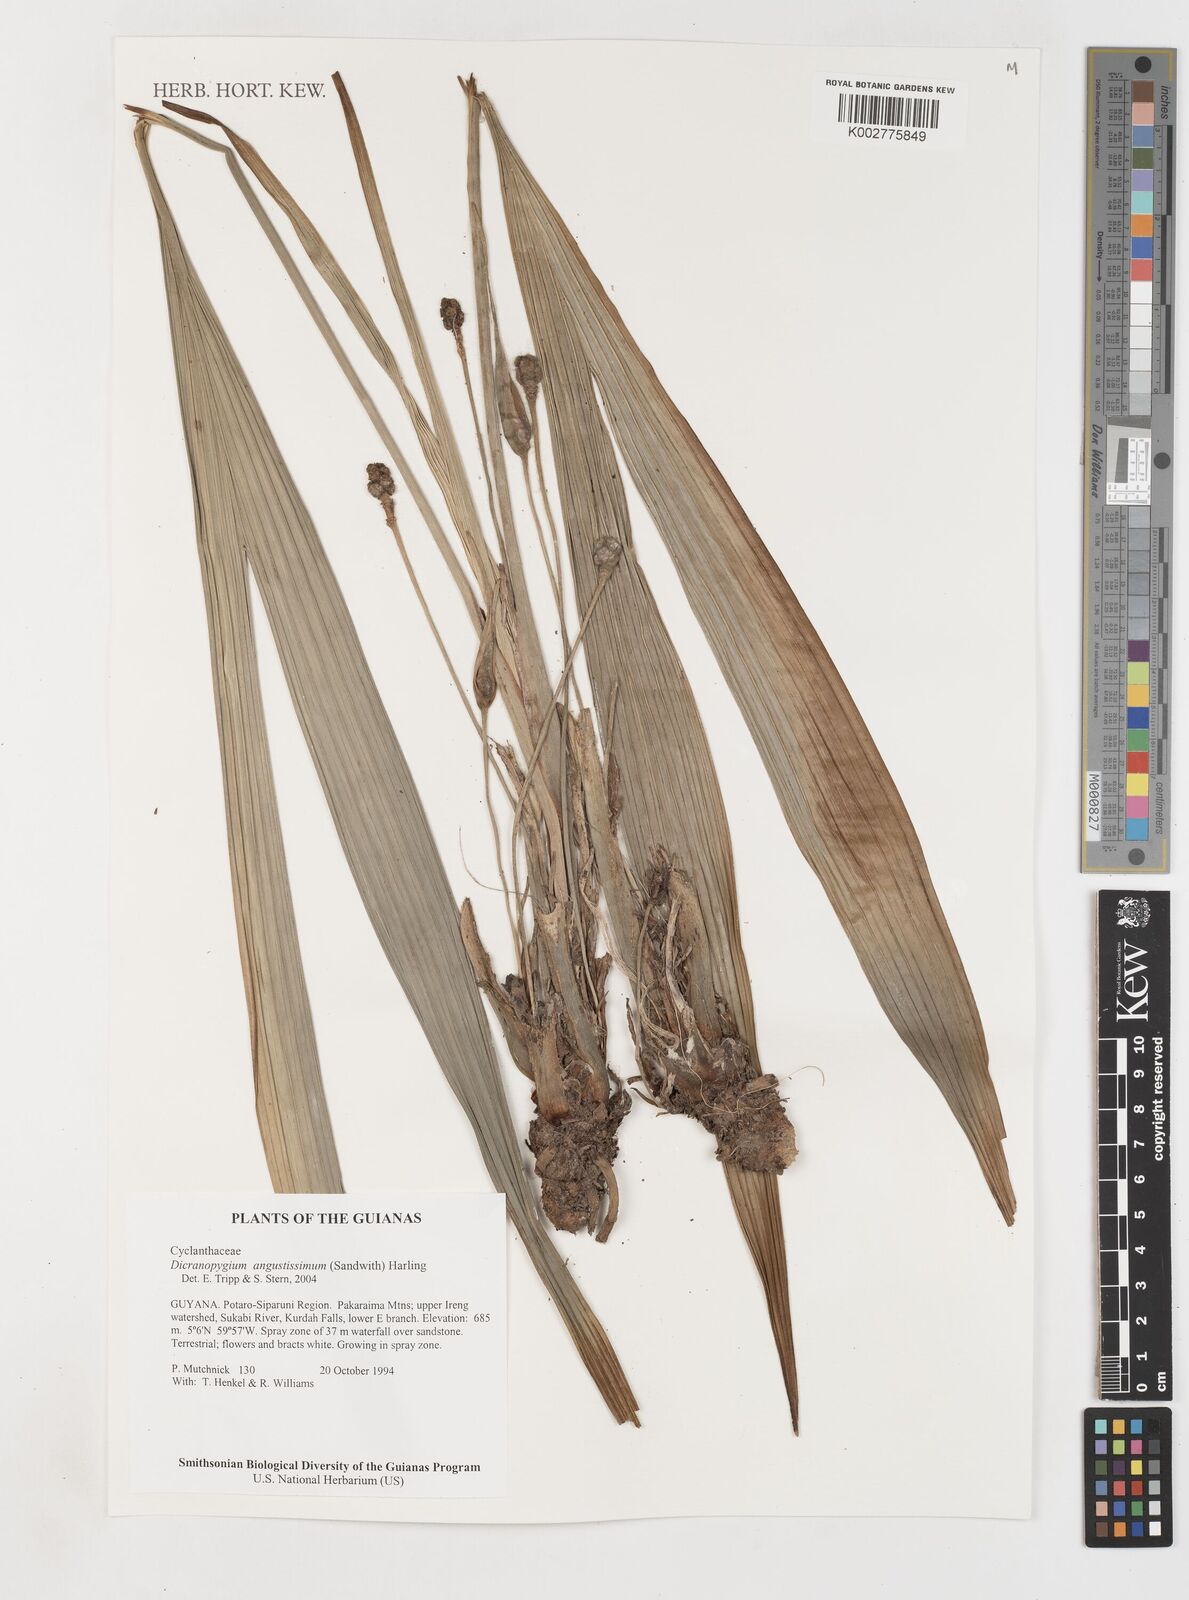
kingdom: Plantae
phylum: Tracheophyta
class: Liliopsida
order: Pandanales
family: Cyclanthaceae
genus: Dicranopygium
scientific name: Dicranopygium angustissimum
